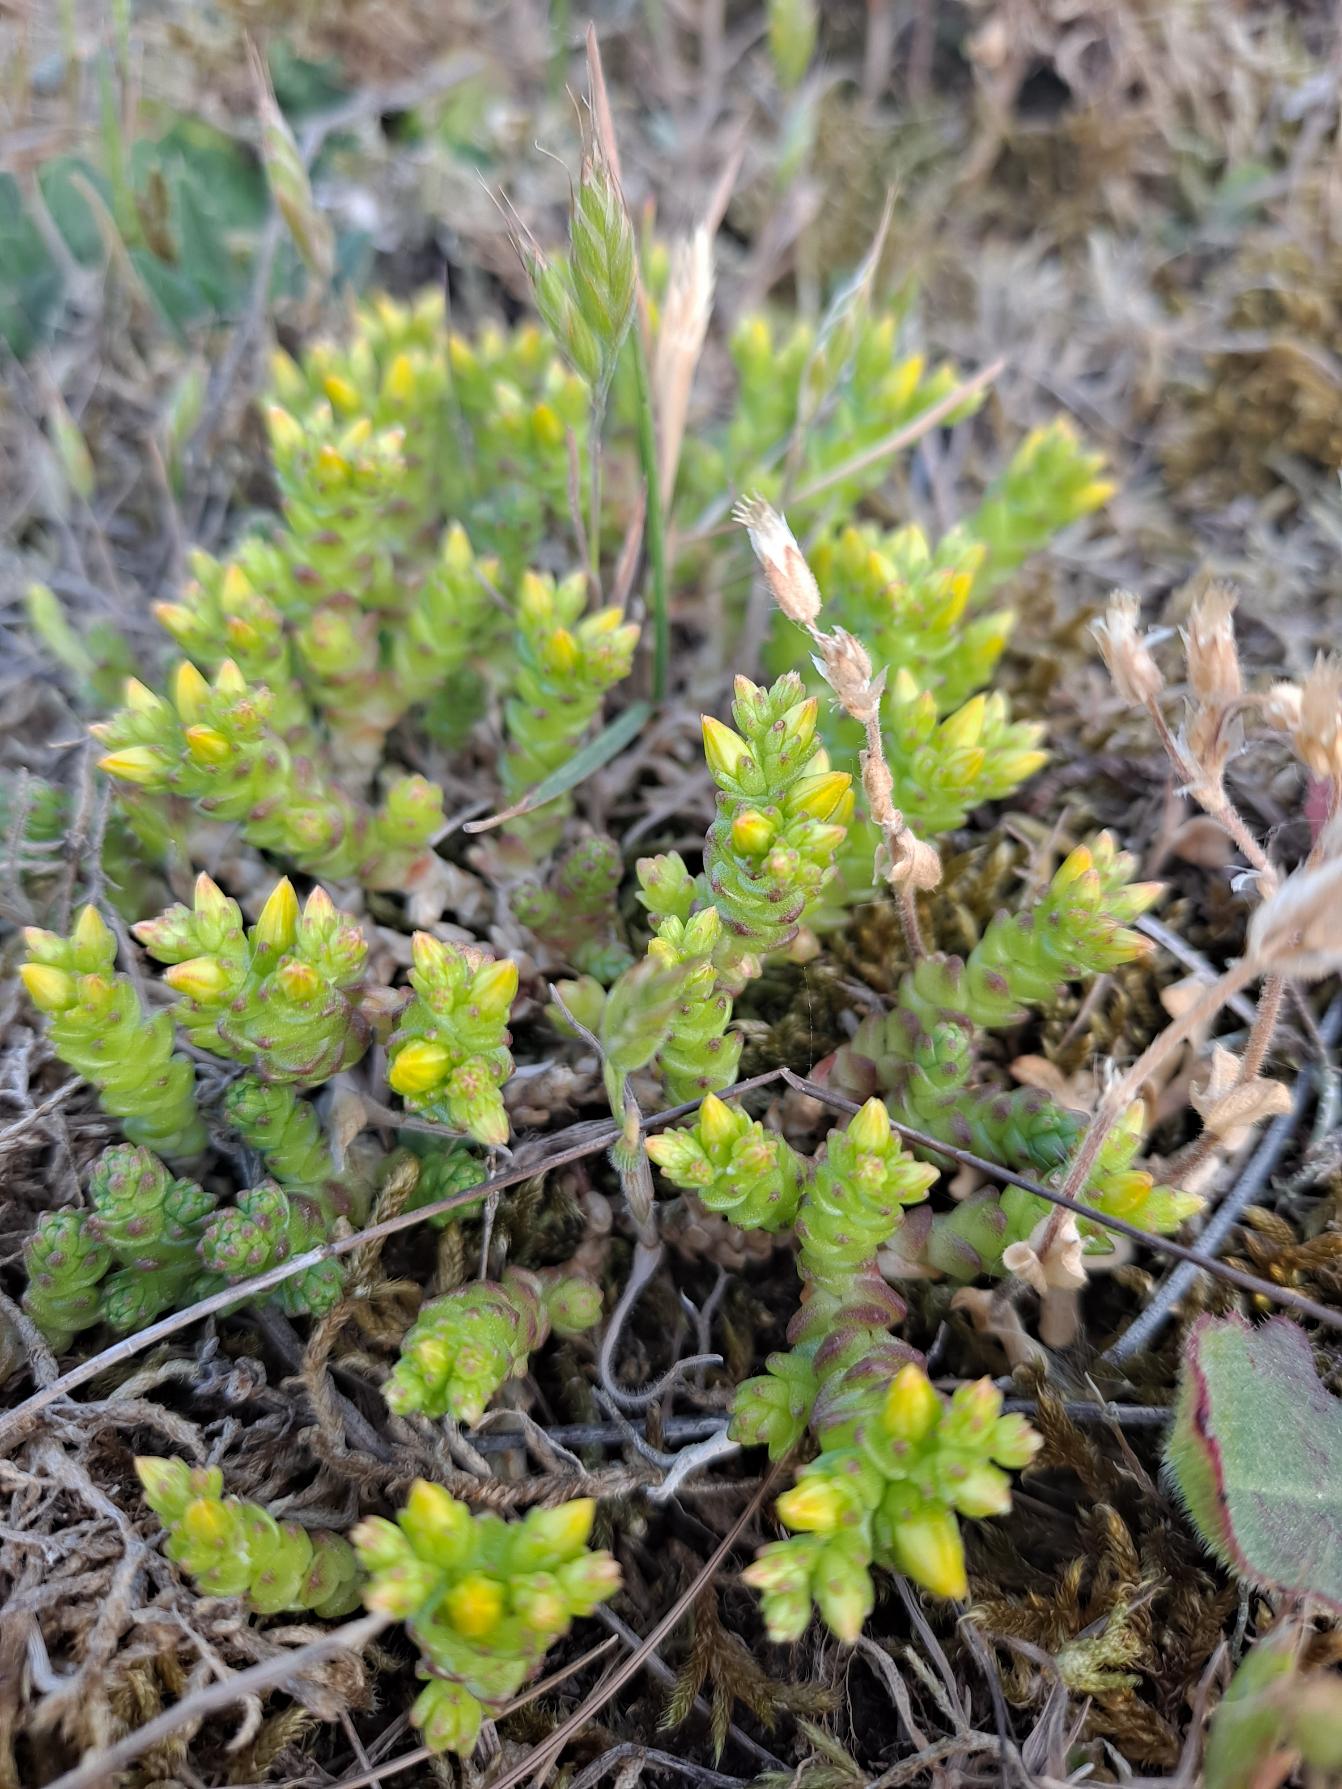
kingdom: Plantae
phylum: Tracheophyta
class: Magnoliopsida
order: Saxifragales
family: Crassulaceae
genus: Sedum
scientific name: Sedum acre
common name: Bidende stenurt
